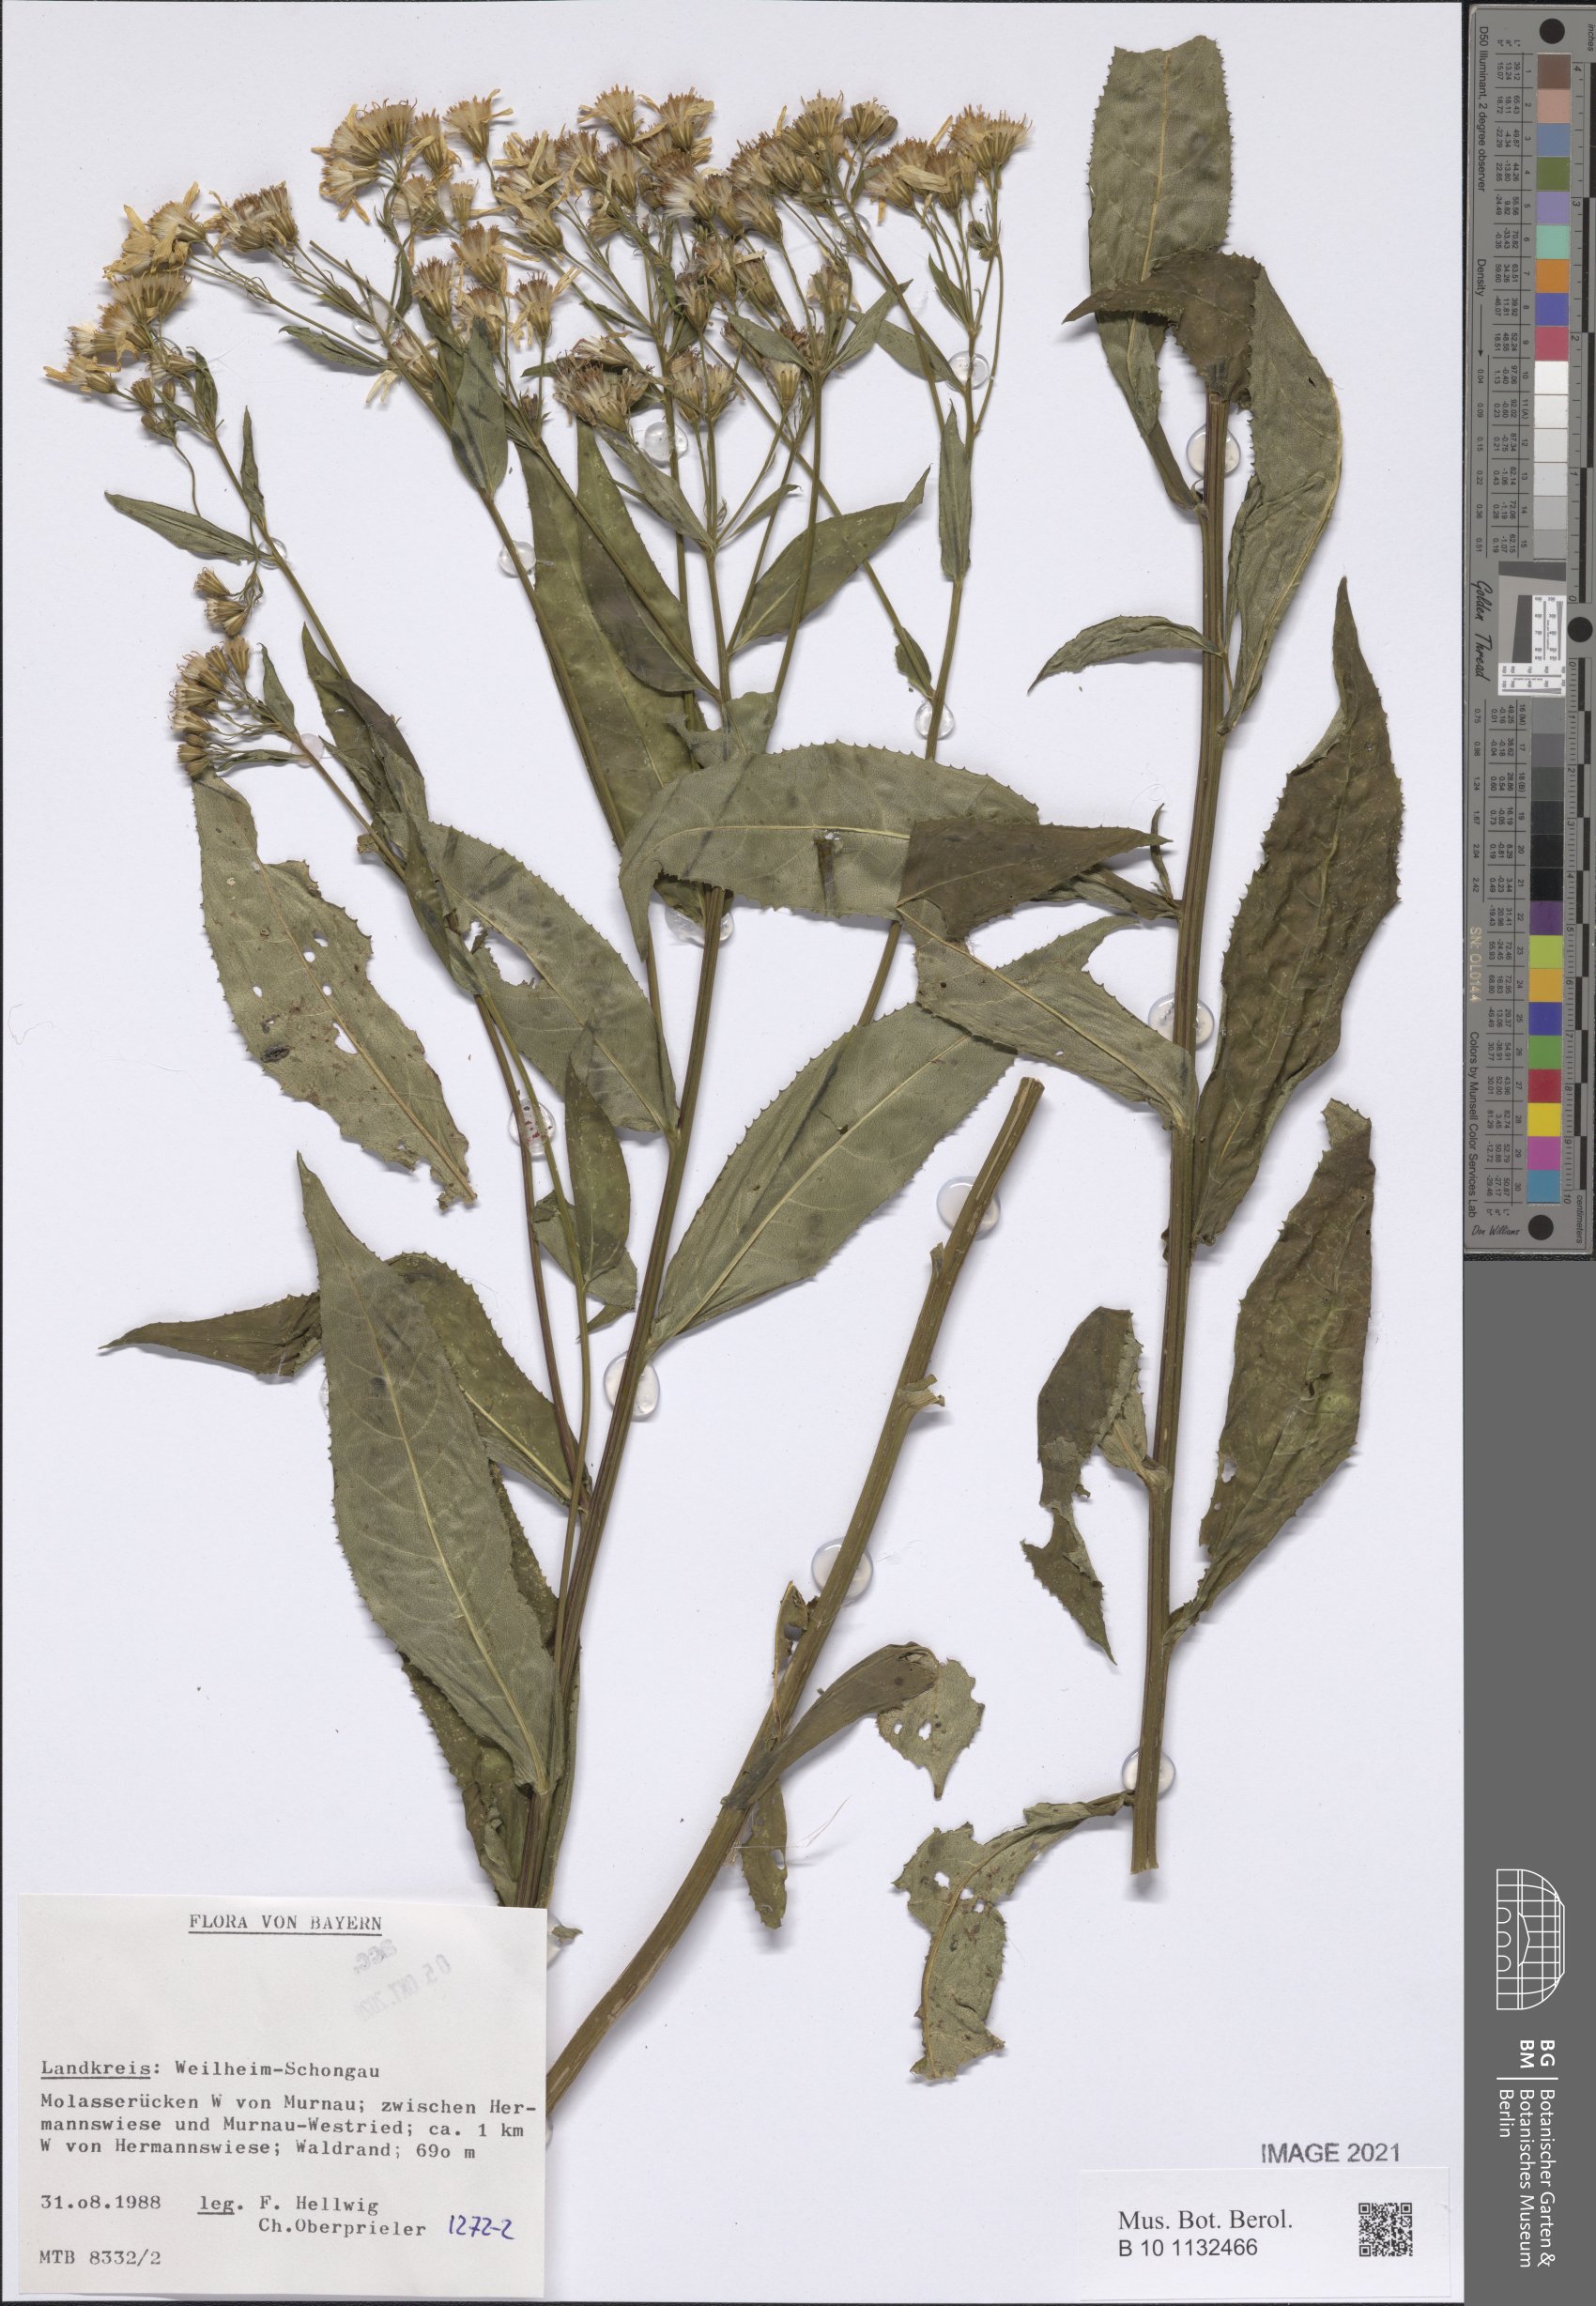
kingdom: Plantae
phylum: Tracheophyta
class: Magnoliopsida
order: Asterales
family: Asteraceae
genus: Senecio
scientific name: Senecio
